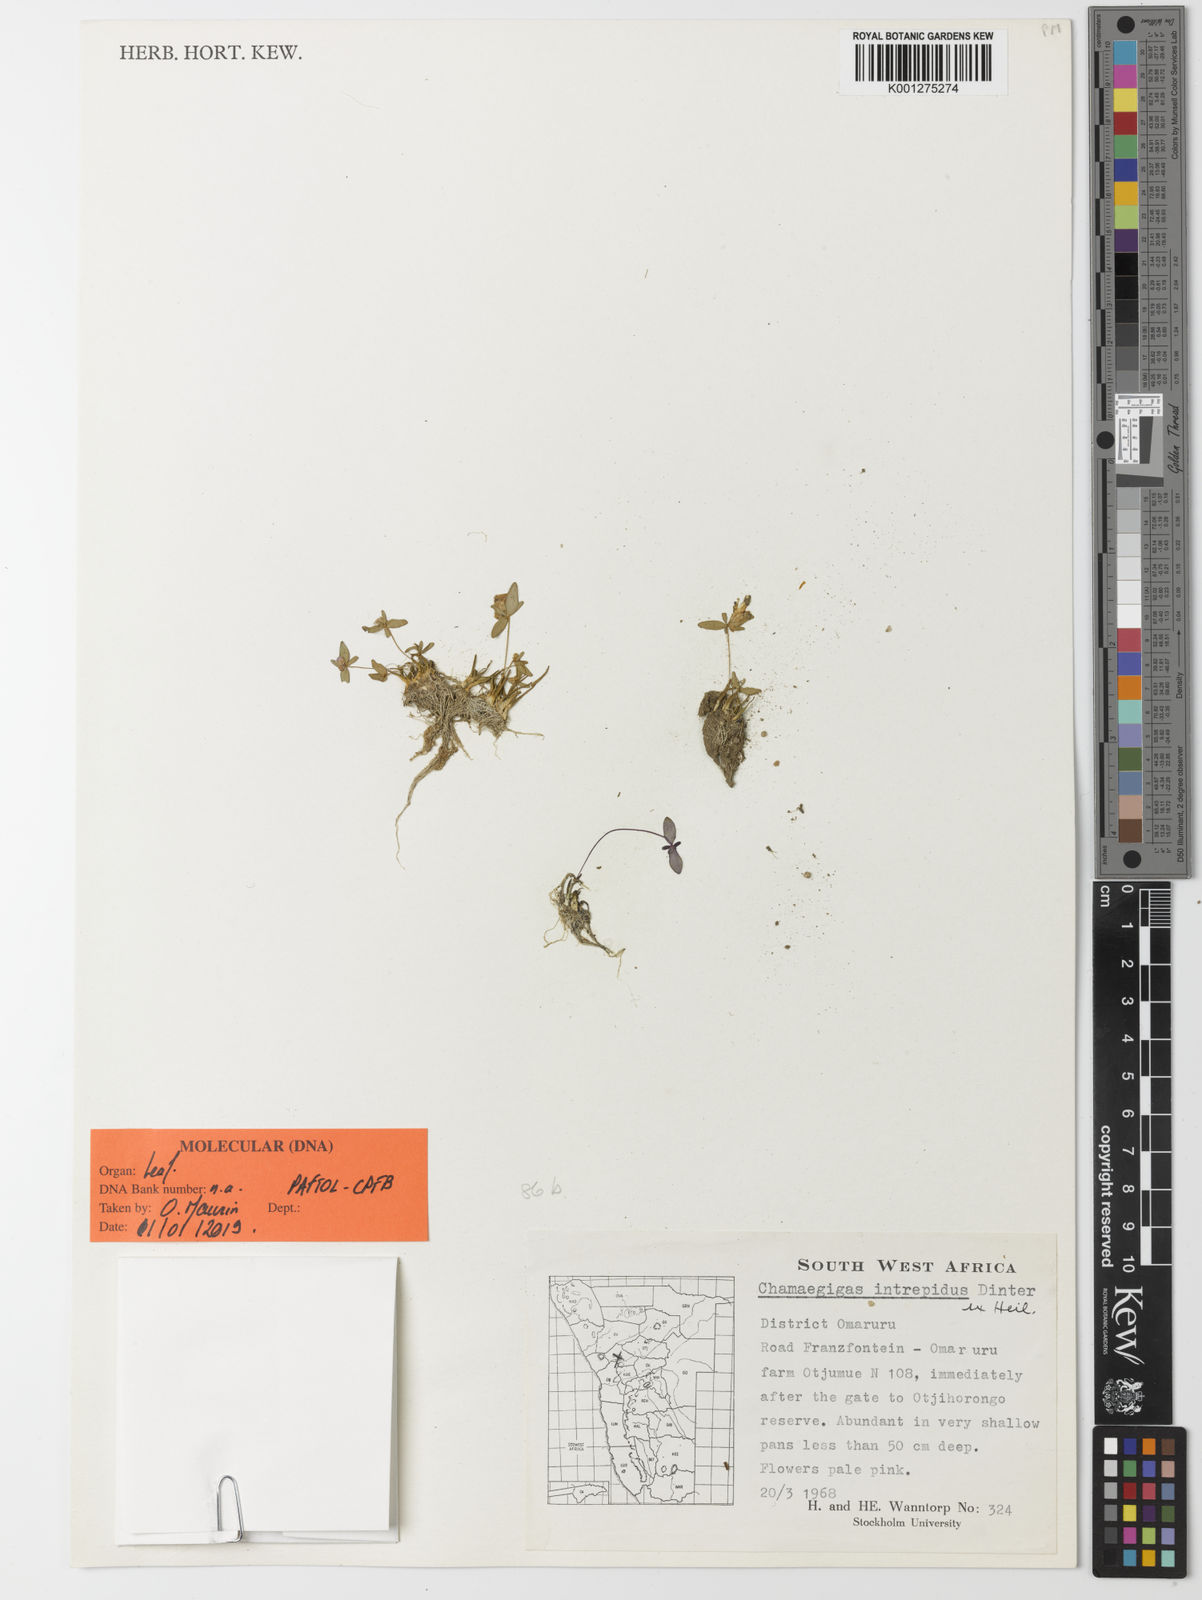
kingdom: Plantae
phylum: Tracheophyta
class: Magnoliopsida
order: Lamiales
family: Linderniaceae
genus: Chamaegigas
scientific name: Chamaegigas intrepidus
